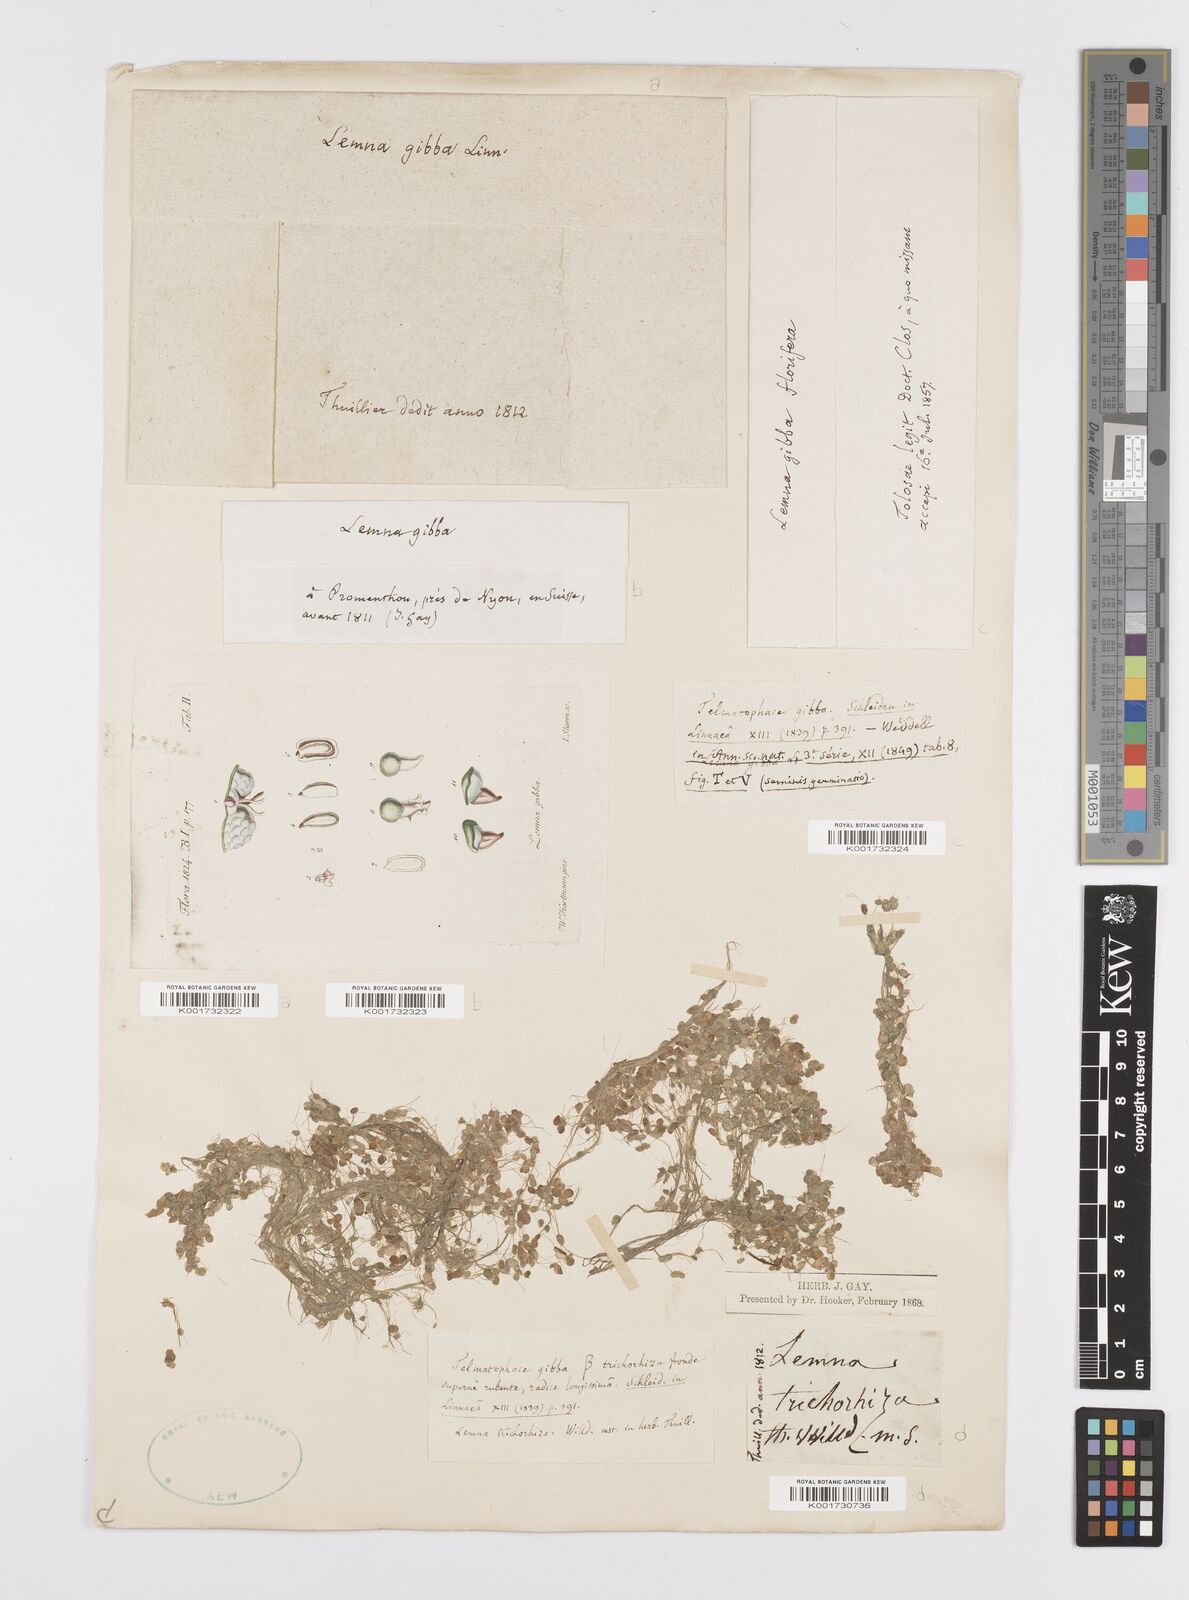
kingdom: Plantae
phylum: Tracheophyta
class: Liliopsida
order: Alismatales
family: Araceae
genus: Lemna
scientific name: Lemna gibba
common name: Fat duckweed
